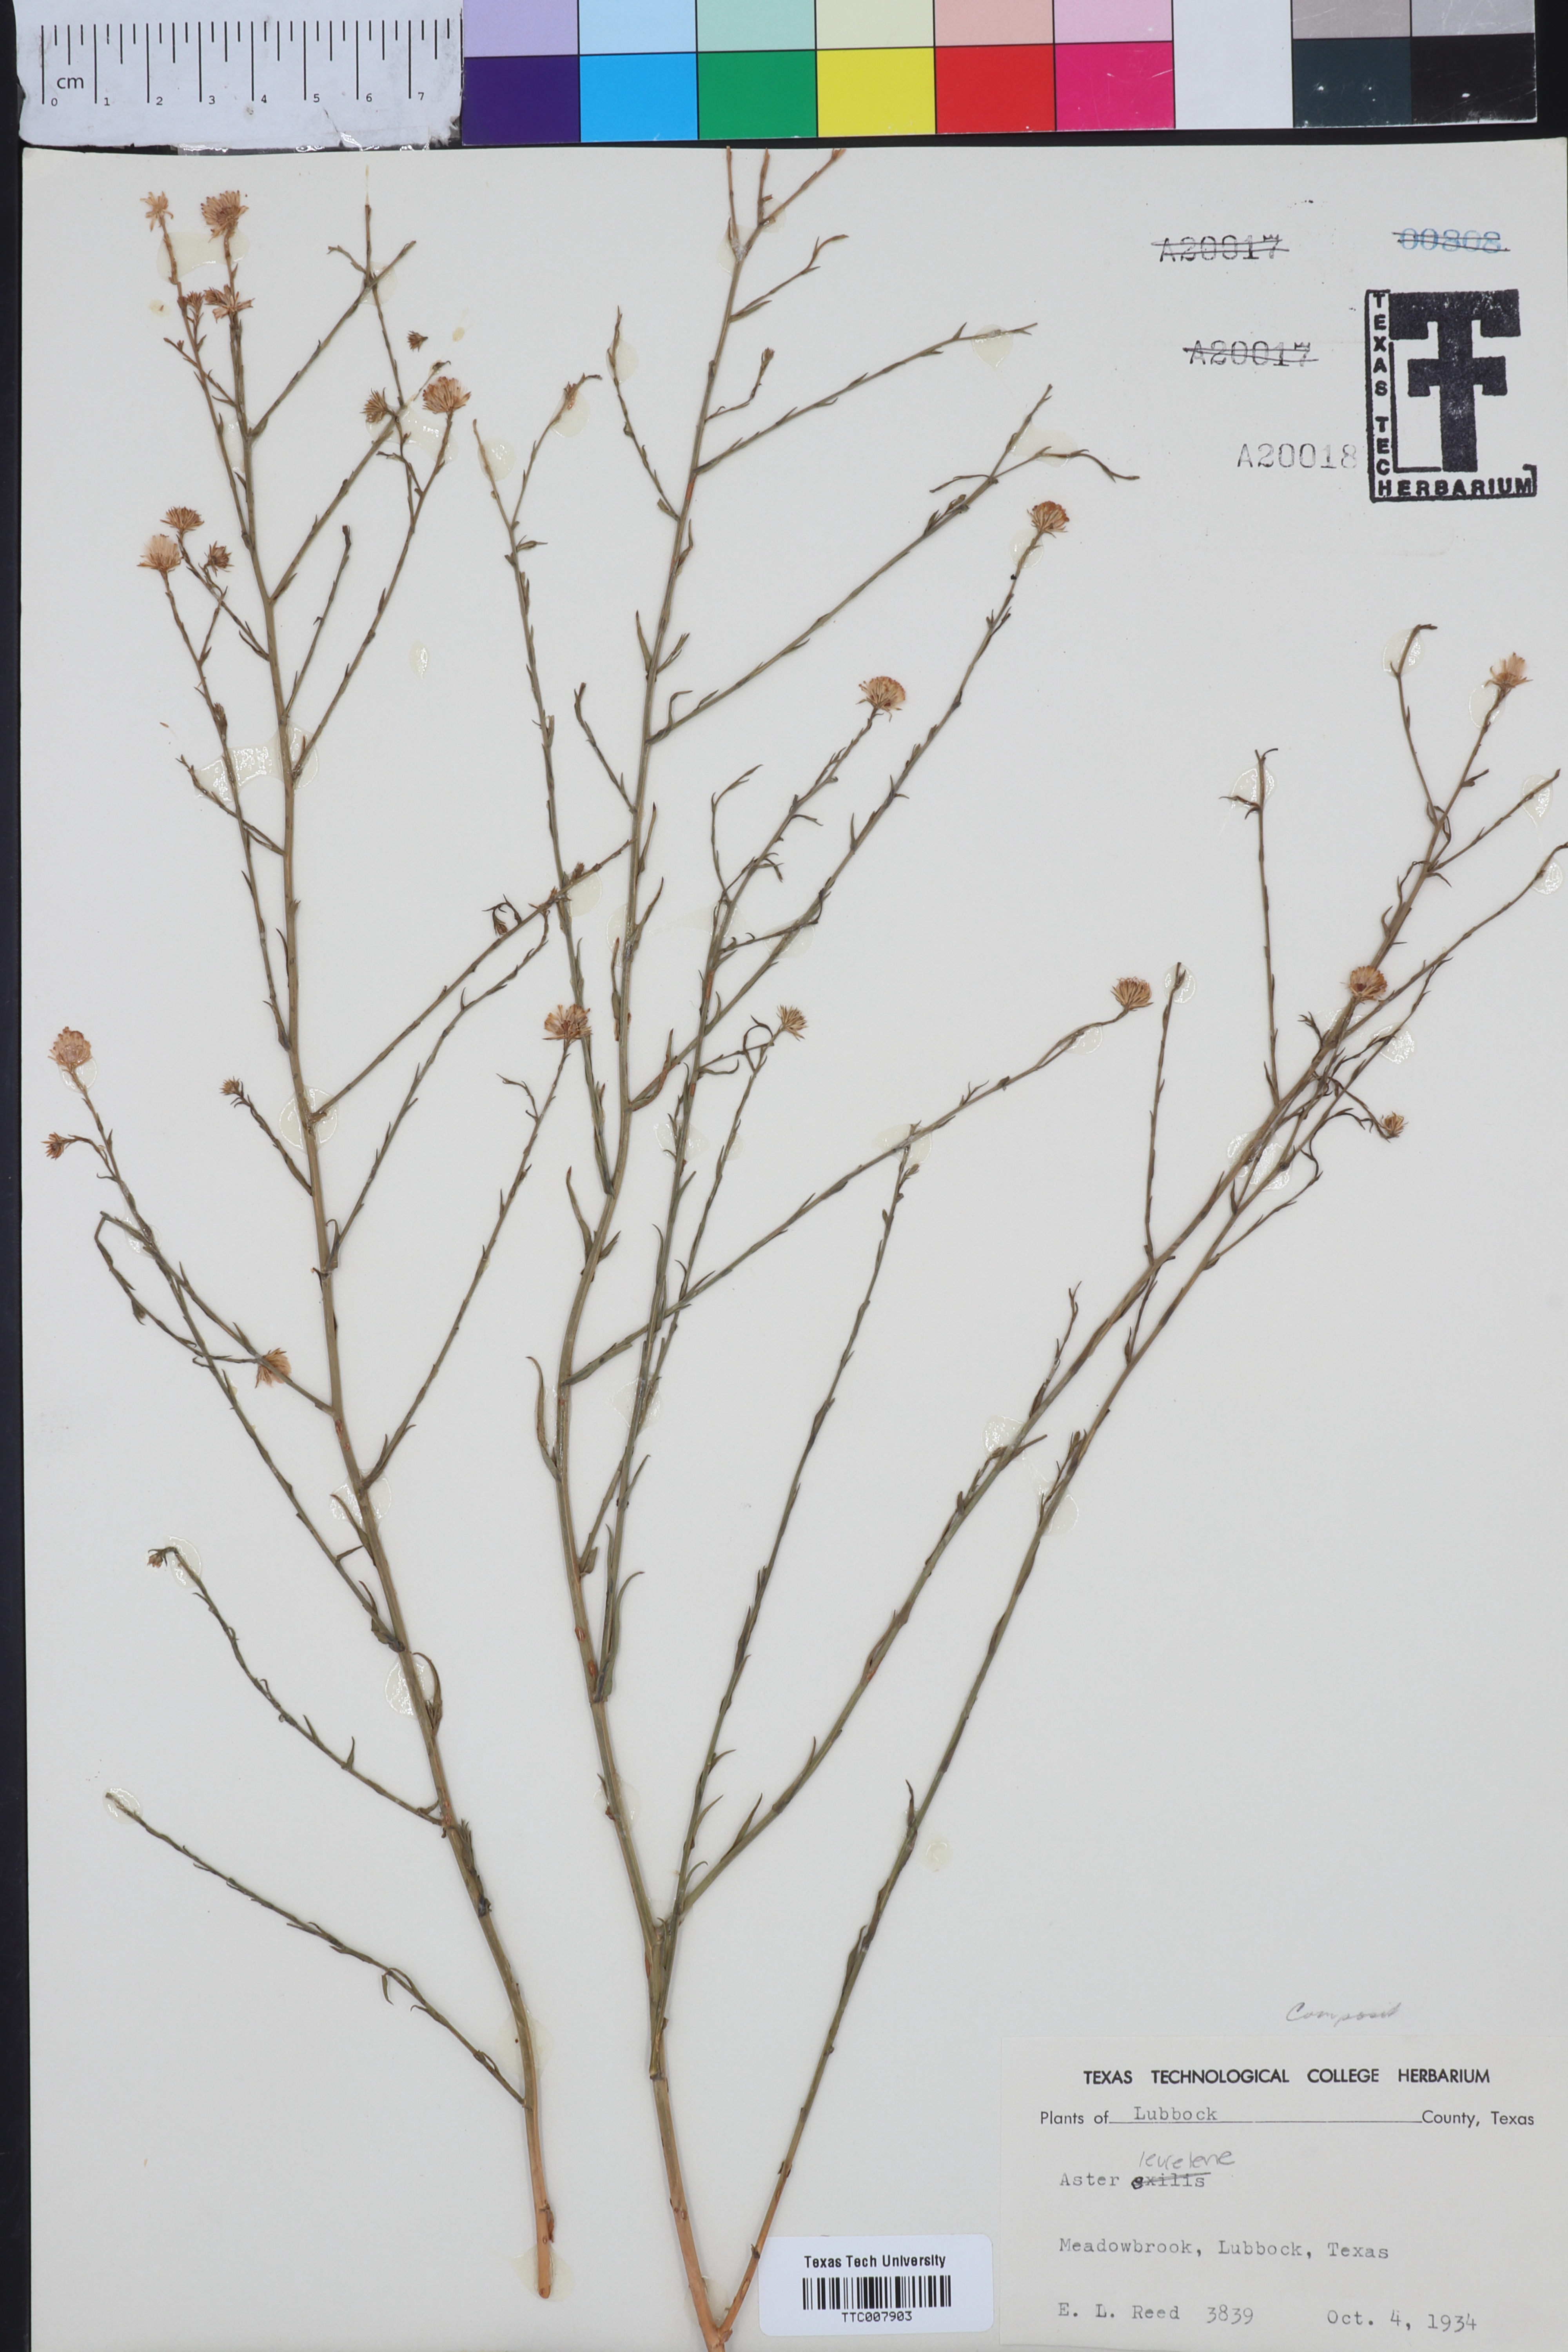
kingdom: Plantae
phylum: Tracheophyta
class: Magnoliopsida
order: Asterales
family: Asteraceae
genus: Symphyotrichum
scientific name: Symphyotrichum expansum
